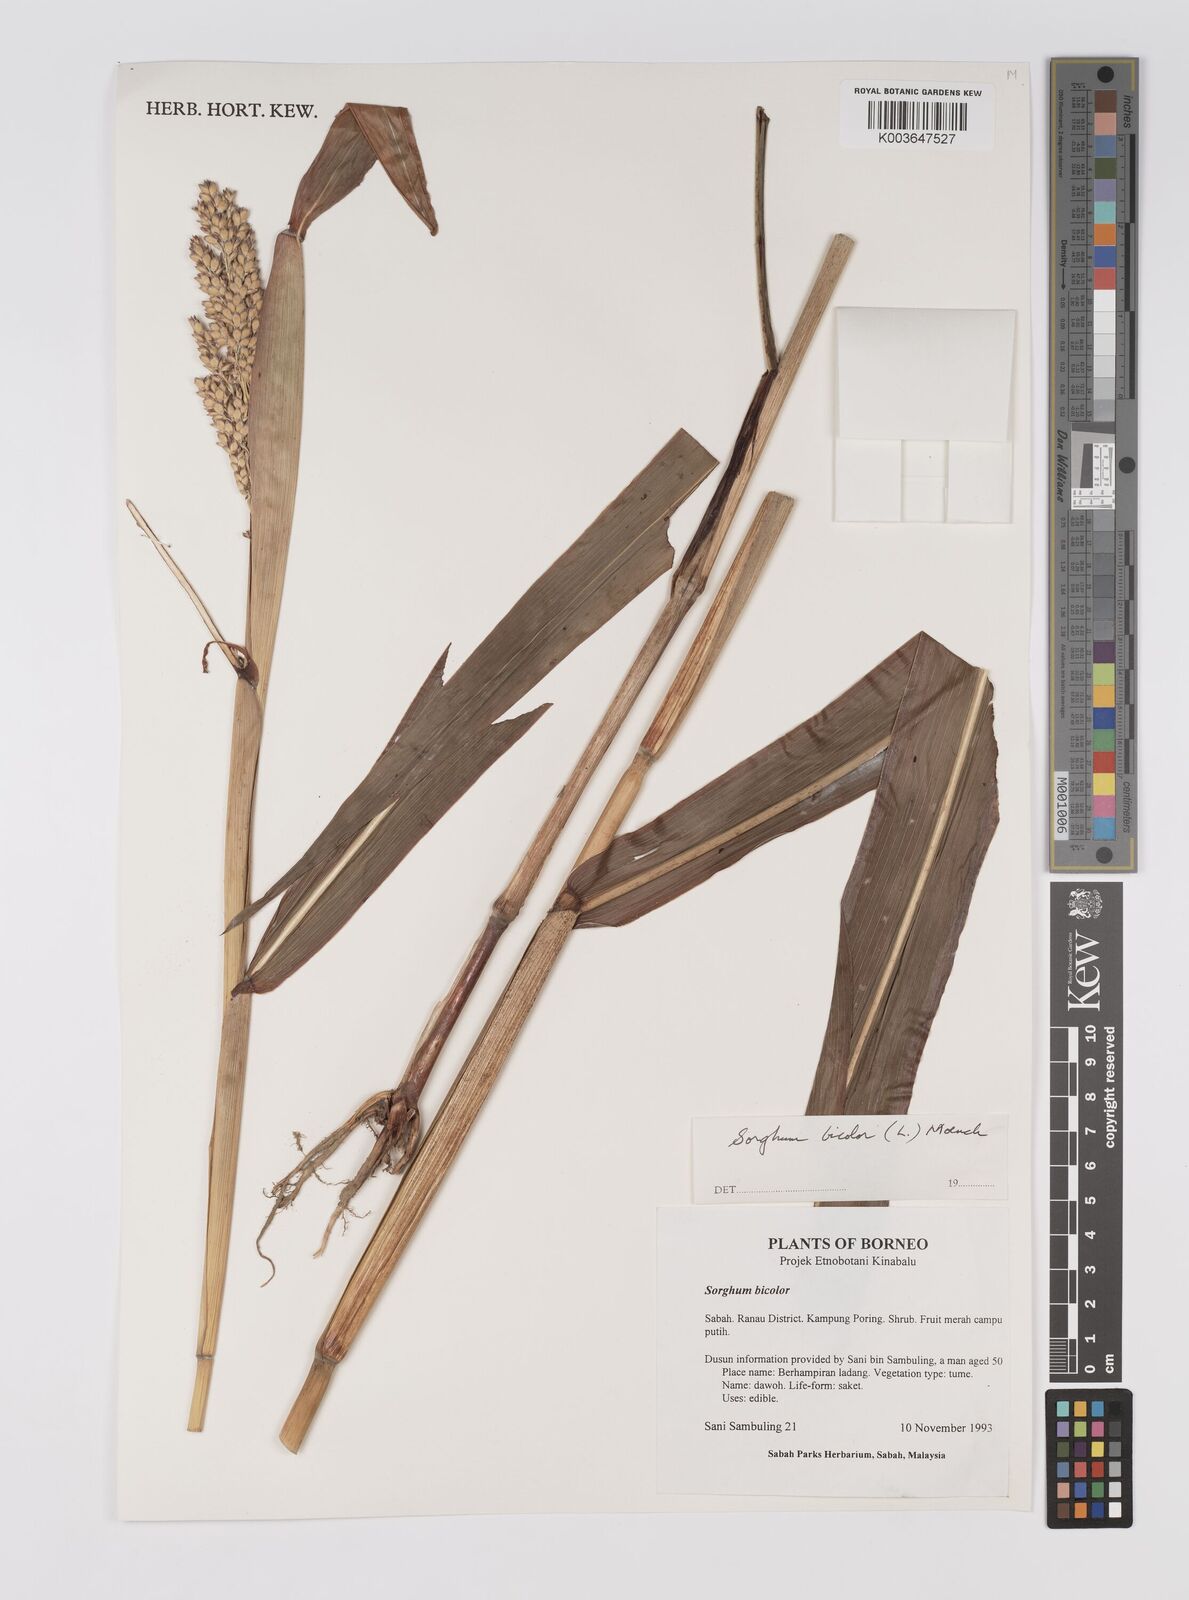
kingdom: Plantae
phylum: Tracheophyta
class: Liliopsida
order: Poales
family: Poaceae
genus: Hyparrhenia
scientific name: Hyparrhenia dichroa
